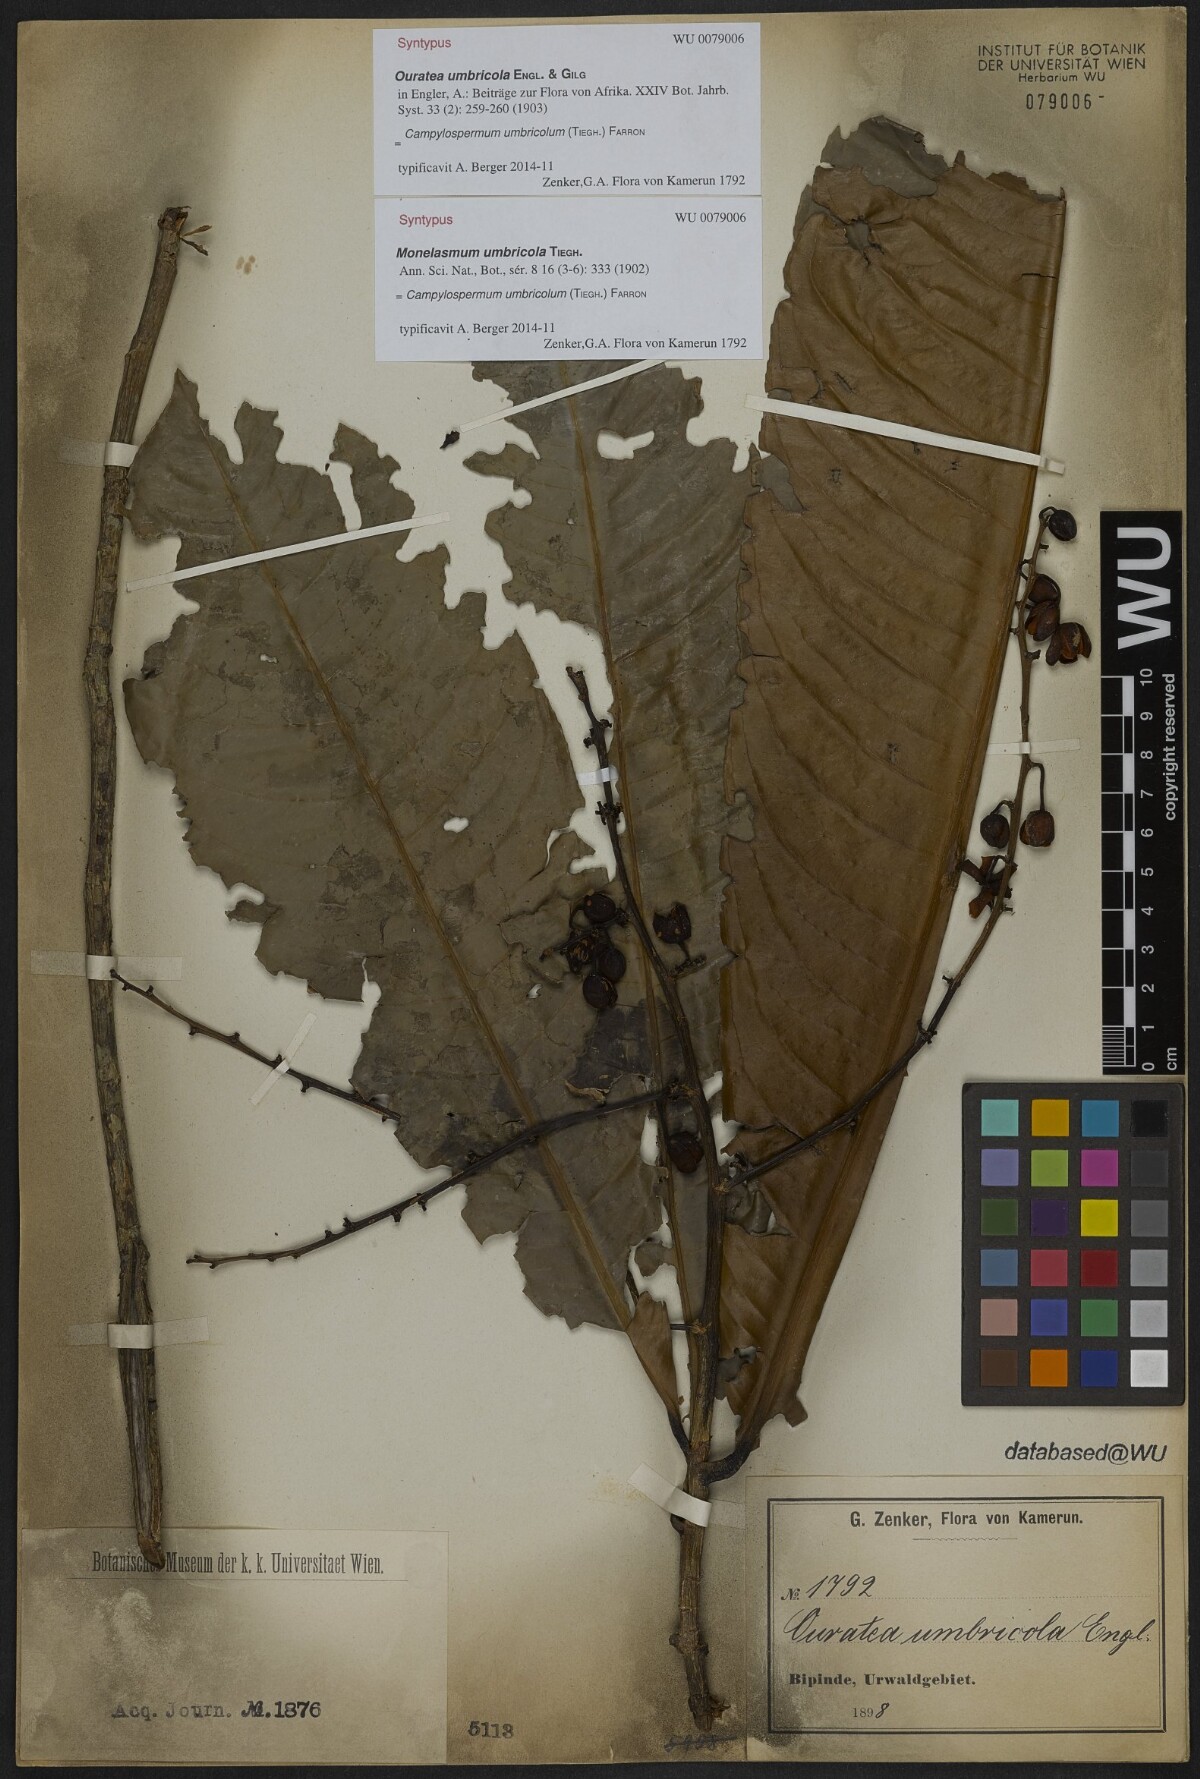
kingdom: Plantae
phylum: Tracheophyta
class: Magnoliopsida
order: Malpighiales
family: Ochnaceae
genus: Campylospermum
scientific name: Campylospermum umbricola
